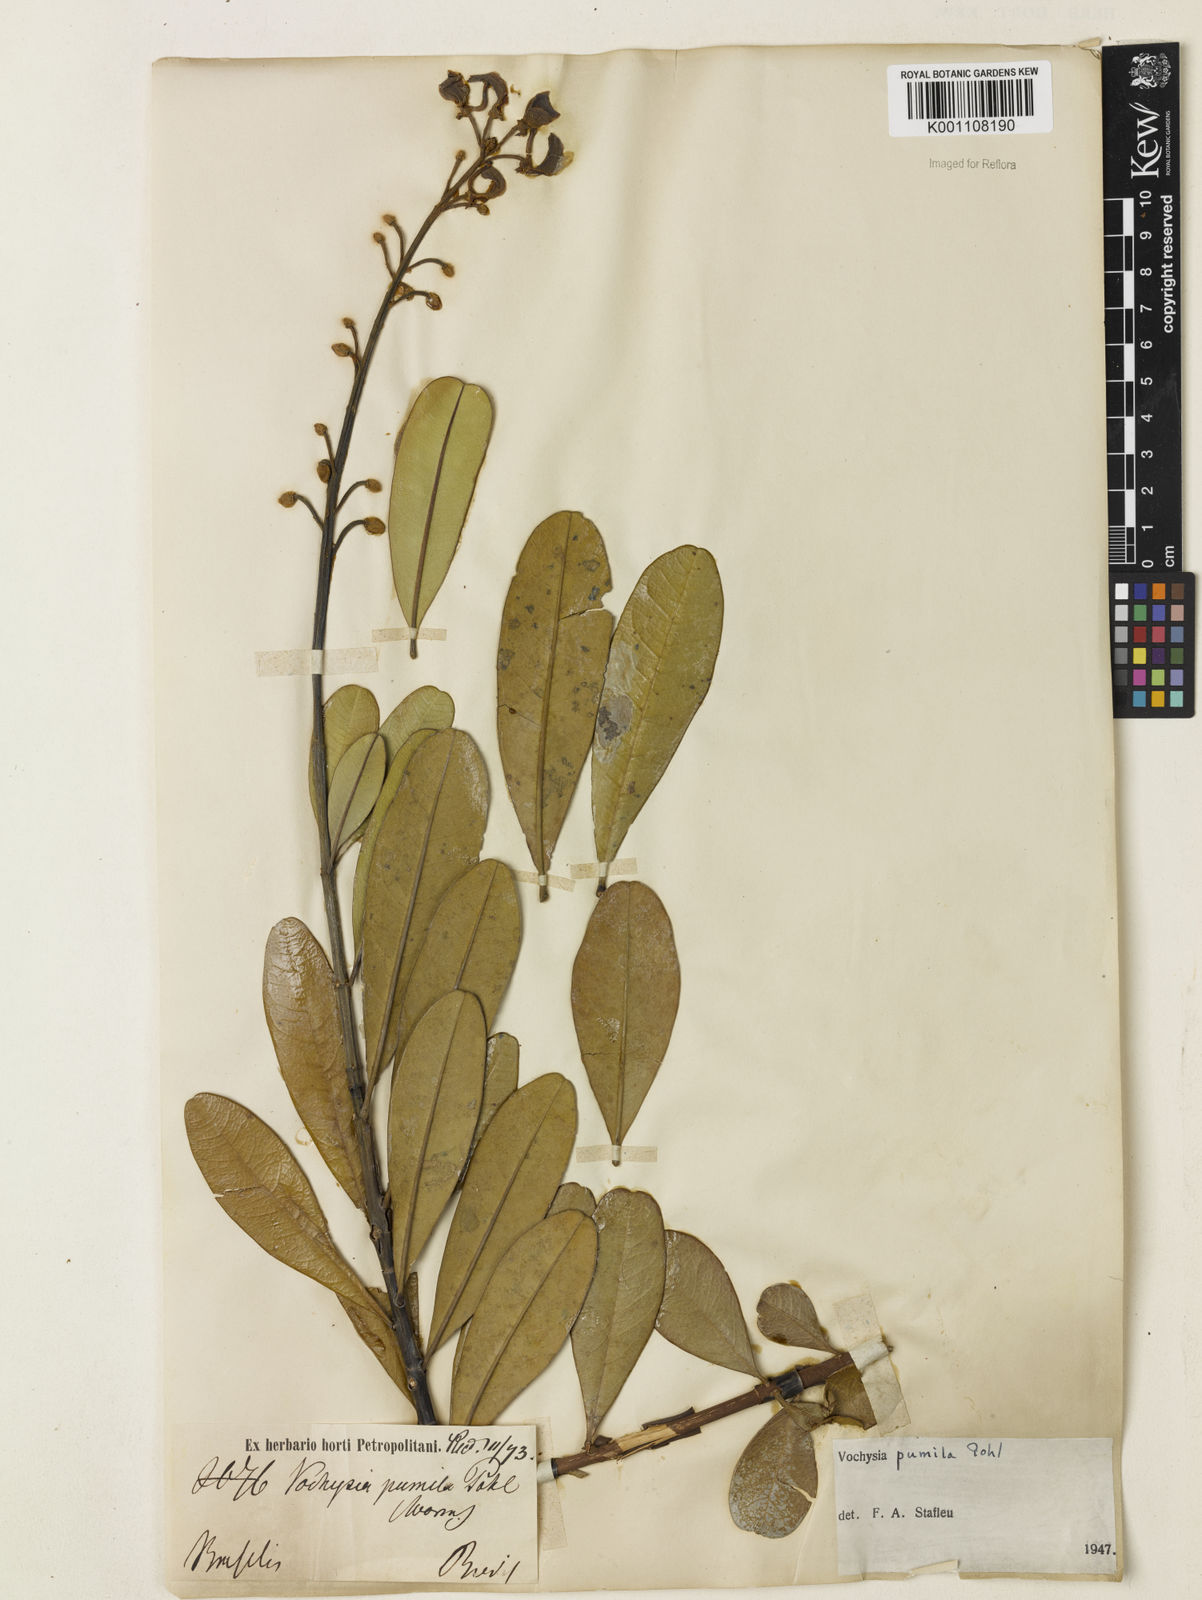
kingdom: Plantae
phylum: Tracheophyta
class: Magnoliopsida
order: Myrtales
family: Vochysiaceae
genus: Vochysia
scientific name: Vochysia pumila
